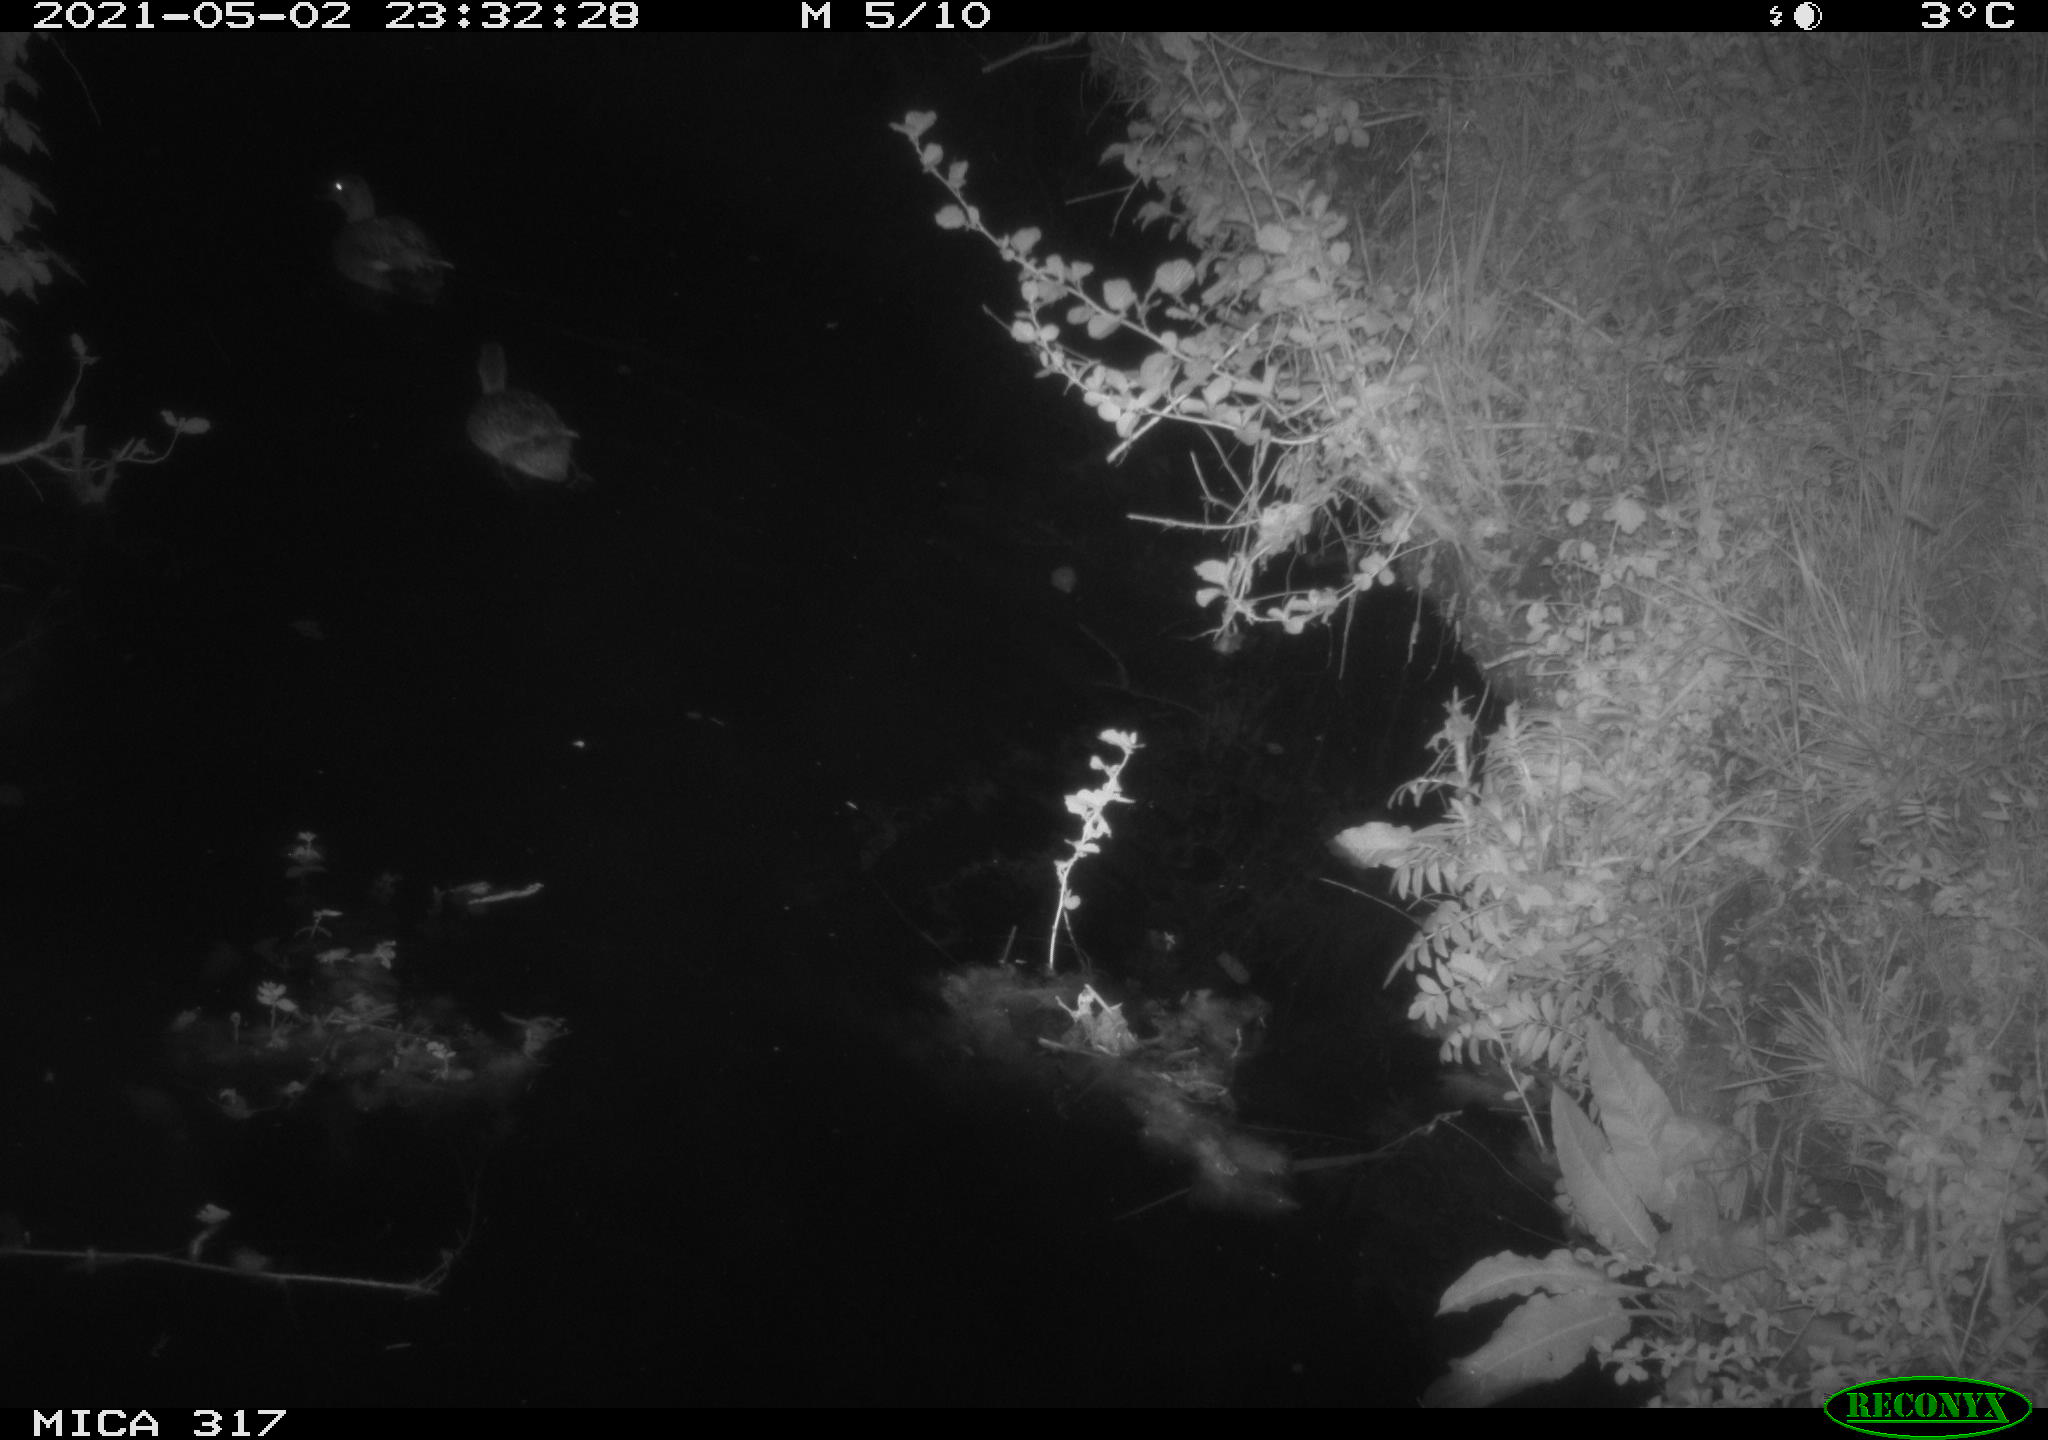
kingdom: Animalia
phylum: Chordata
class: Aves
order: Anseriformes
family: Anatidae
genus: Anas
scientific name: Anas
